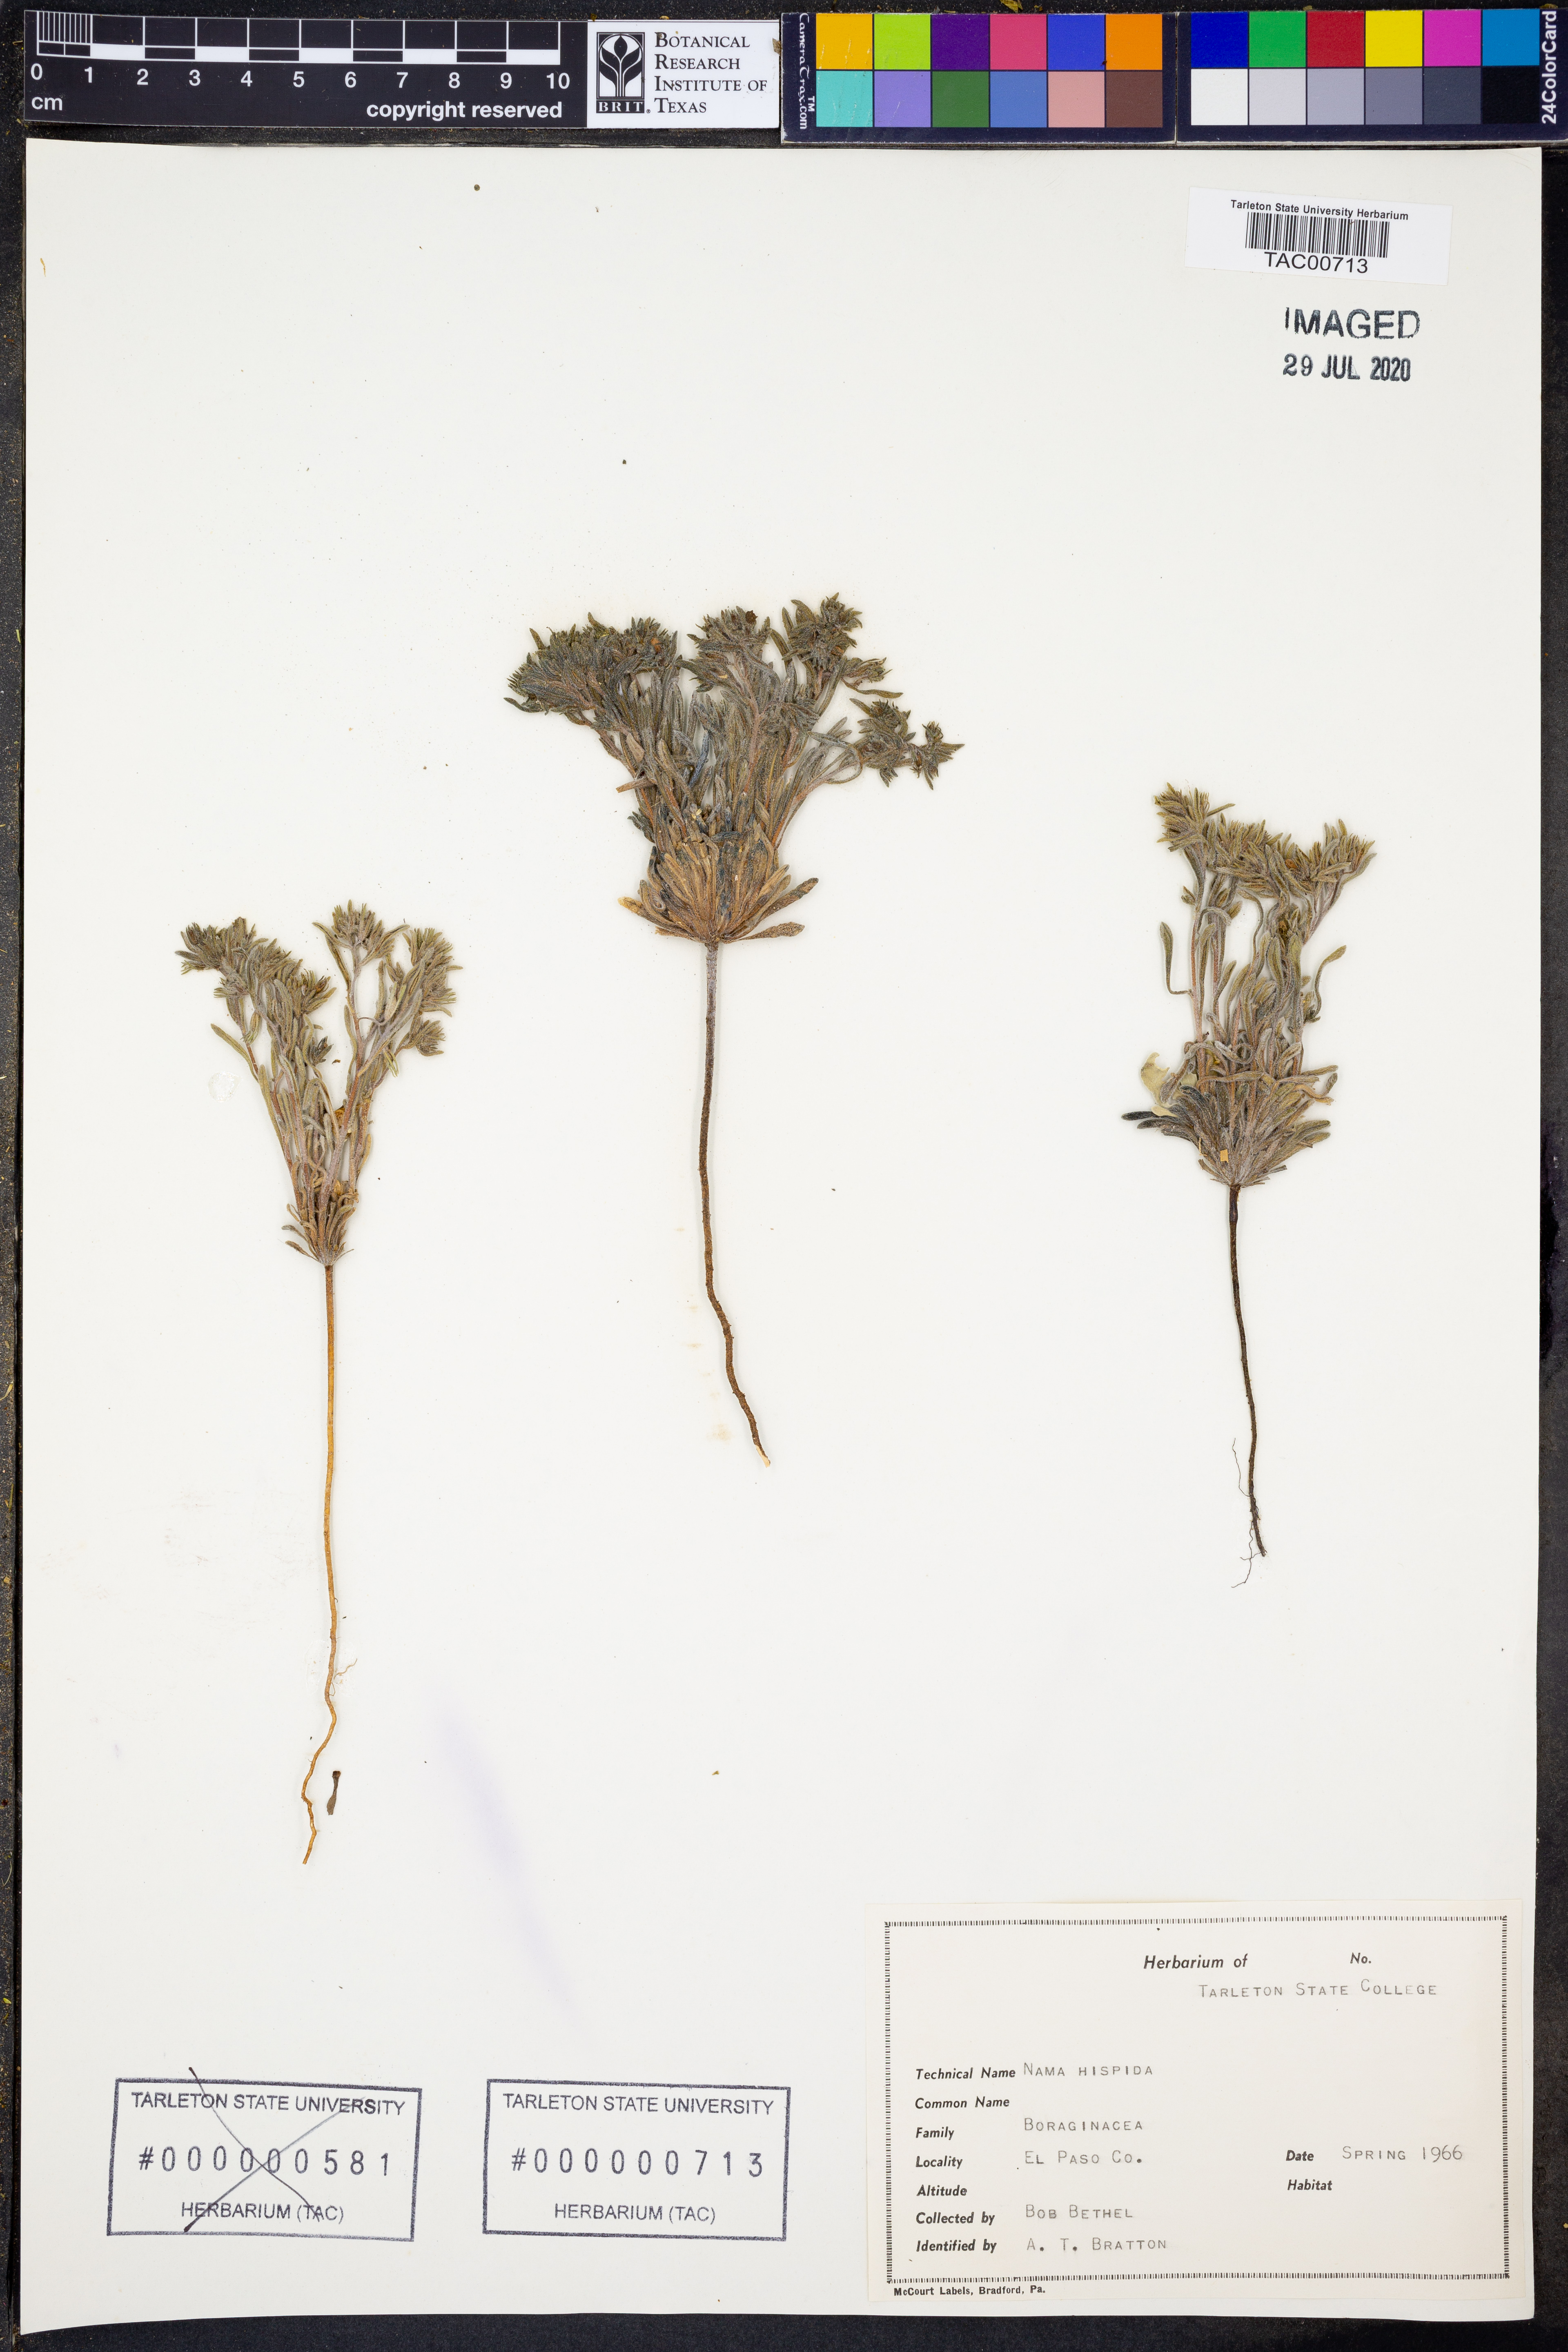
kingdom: Plantae
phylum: Tracheophyta
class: Magnoliopsida
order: Boraginales
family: Namaceae
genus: Nama
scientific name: Nama hispida
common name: Bristly nama
